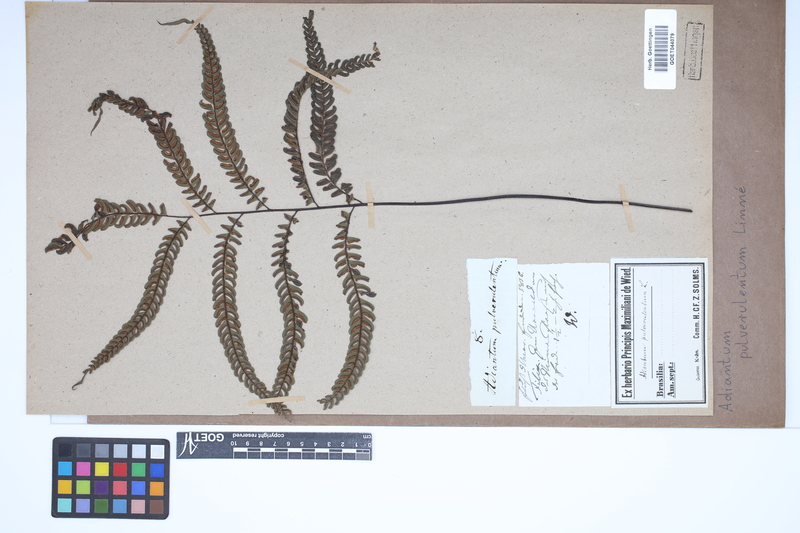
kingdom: Plantae
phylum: Tracheophyta
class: Polypodiopsida
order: Polypodiales
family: Pteridaceae
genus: Adiantum
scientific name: Adiantum pulverulentum
